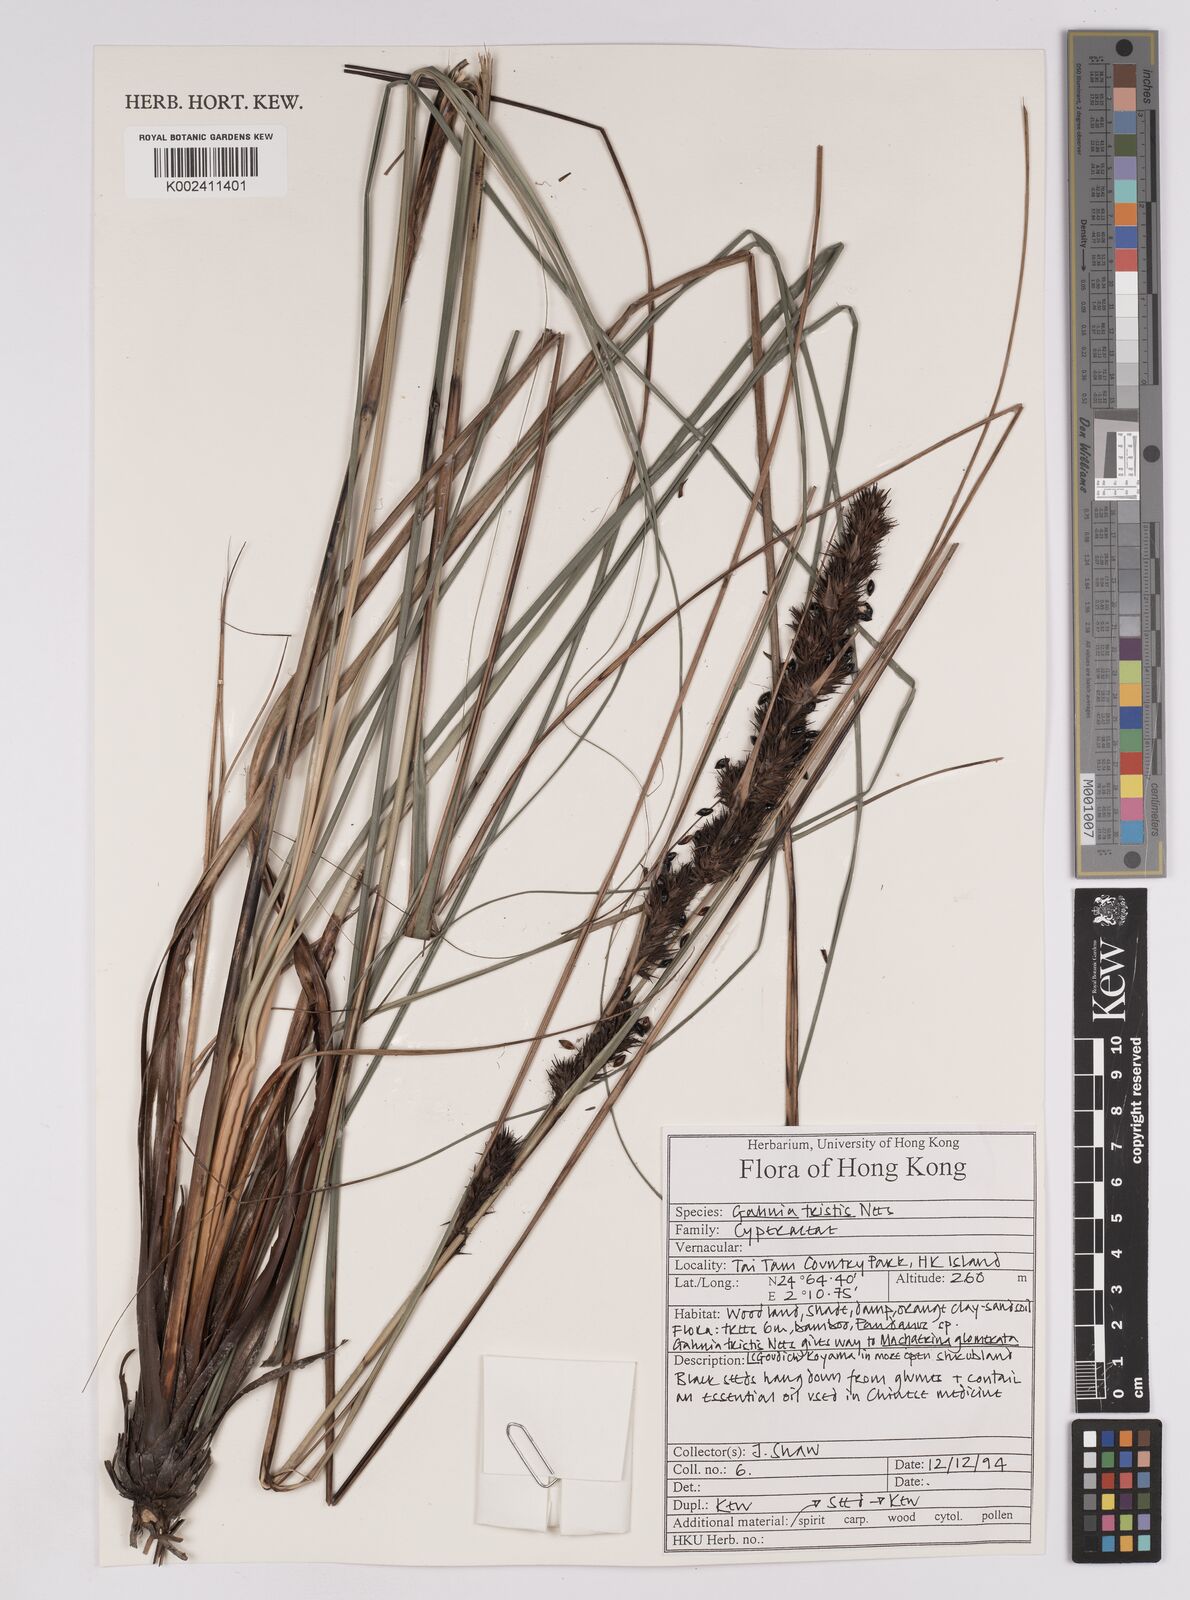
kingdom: Plantae
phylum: Tracheophyta
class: Liliopsida
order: Poales
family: Cyperaceae
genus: Gahnia
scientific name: Gahnia tristis
